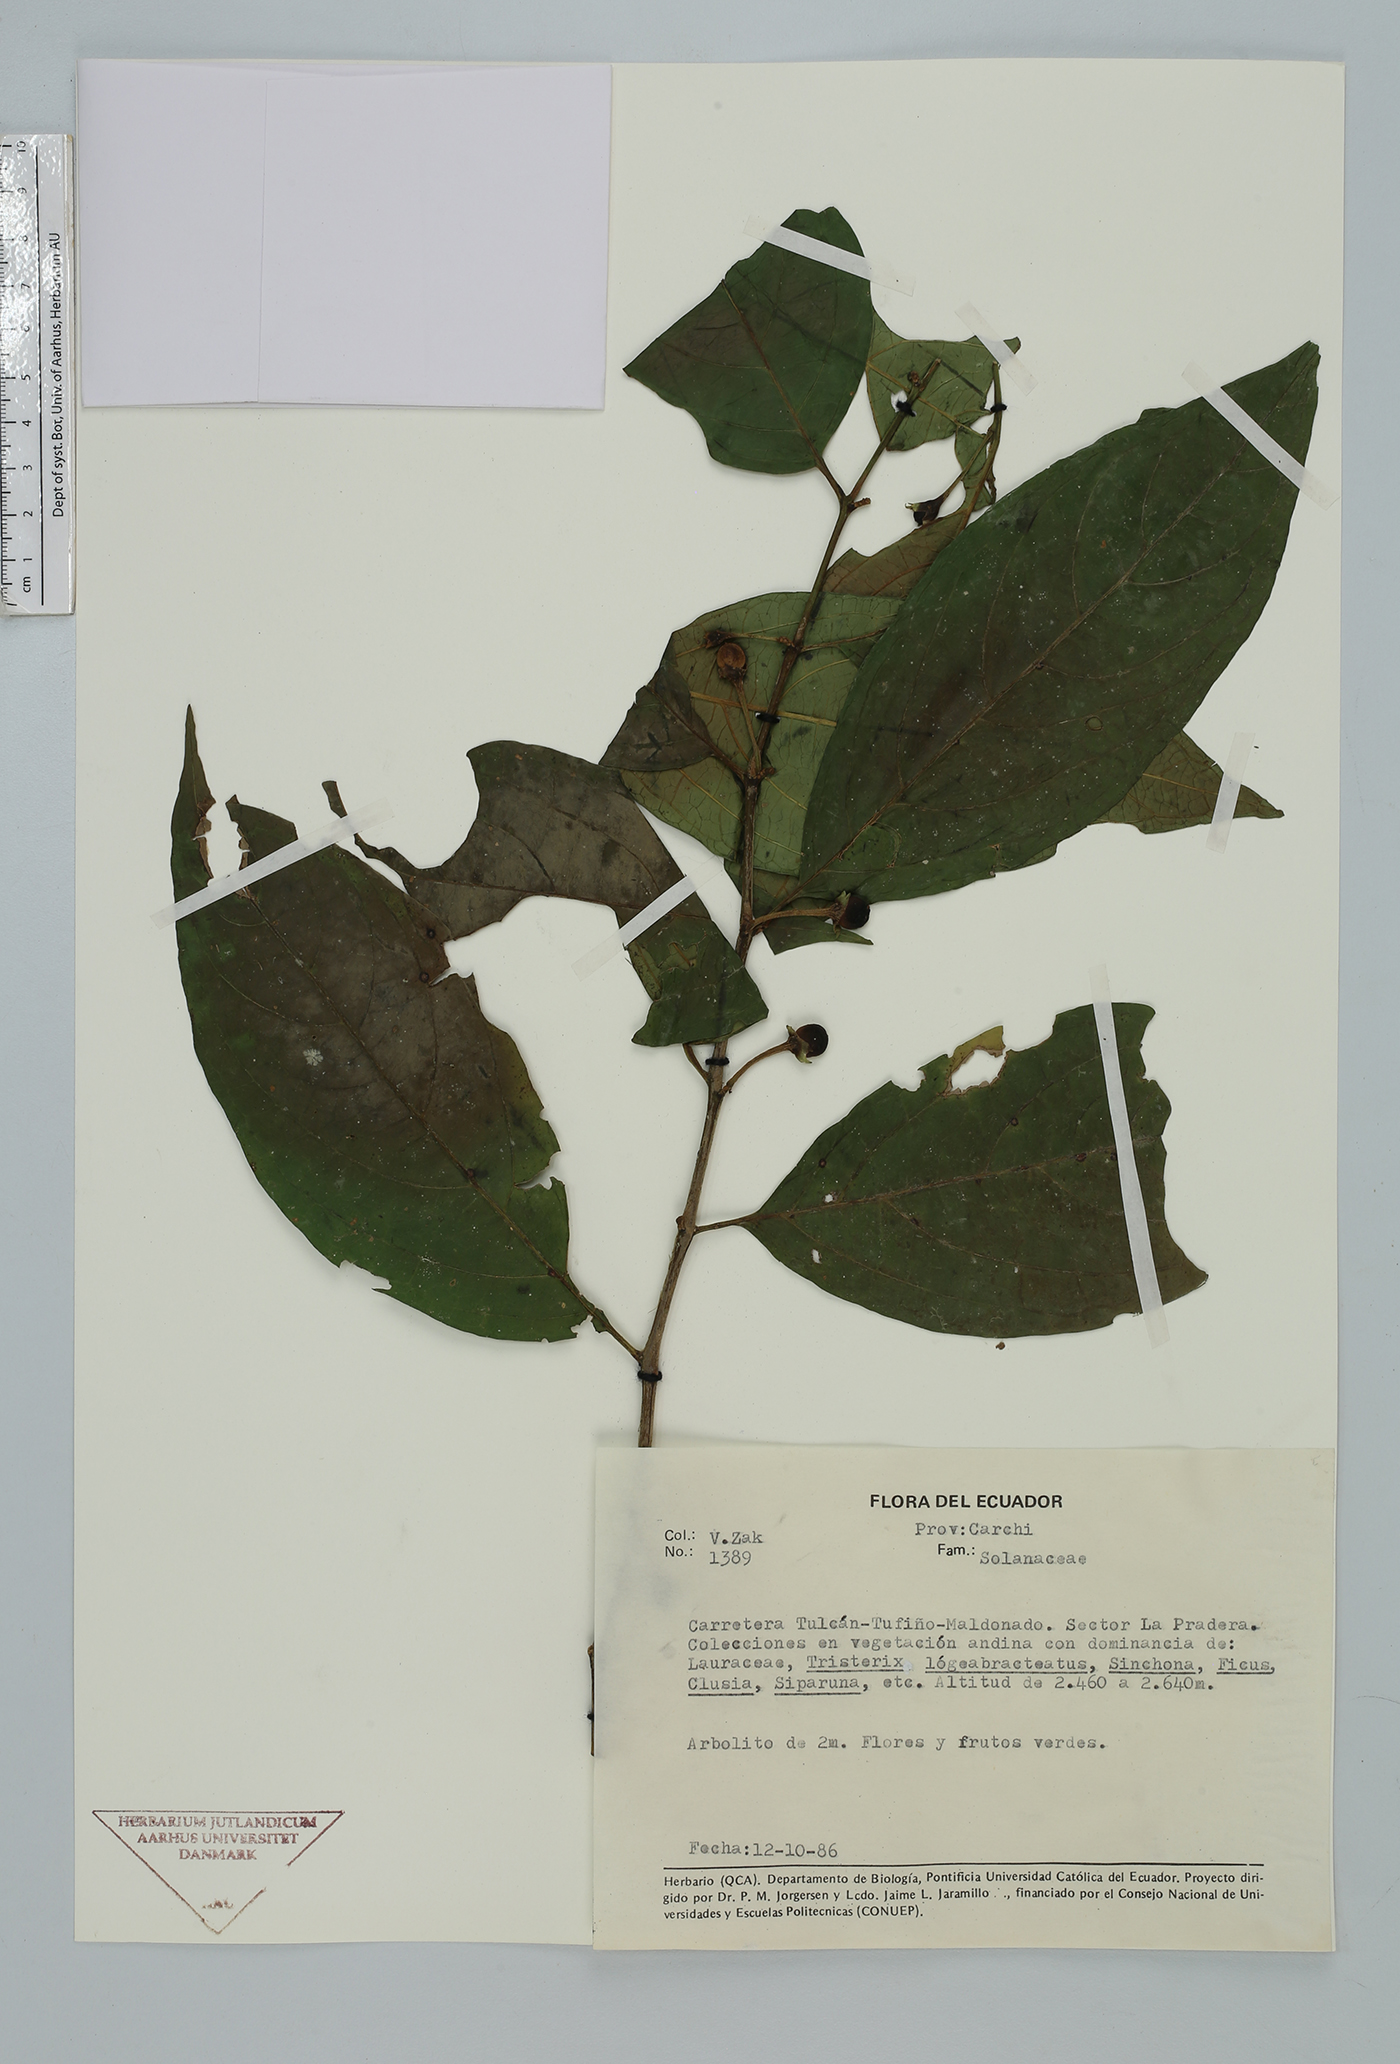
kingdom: Plantae
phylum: Tracheophyta
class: Magnoliopsida
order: Solanales
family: Solanaceae
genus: Solanum
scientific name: Solanum
